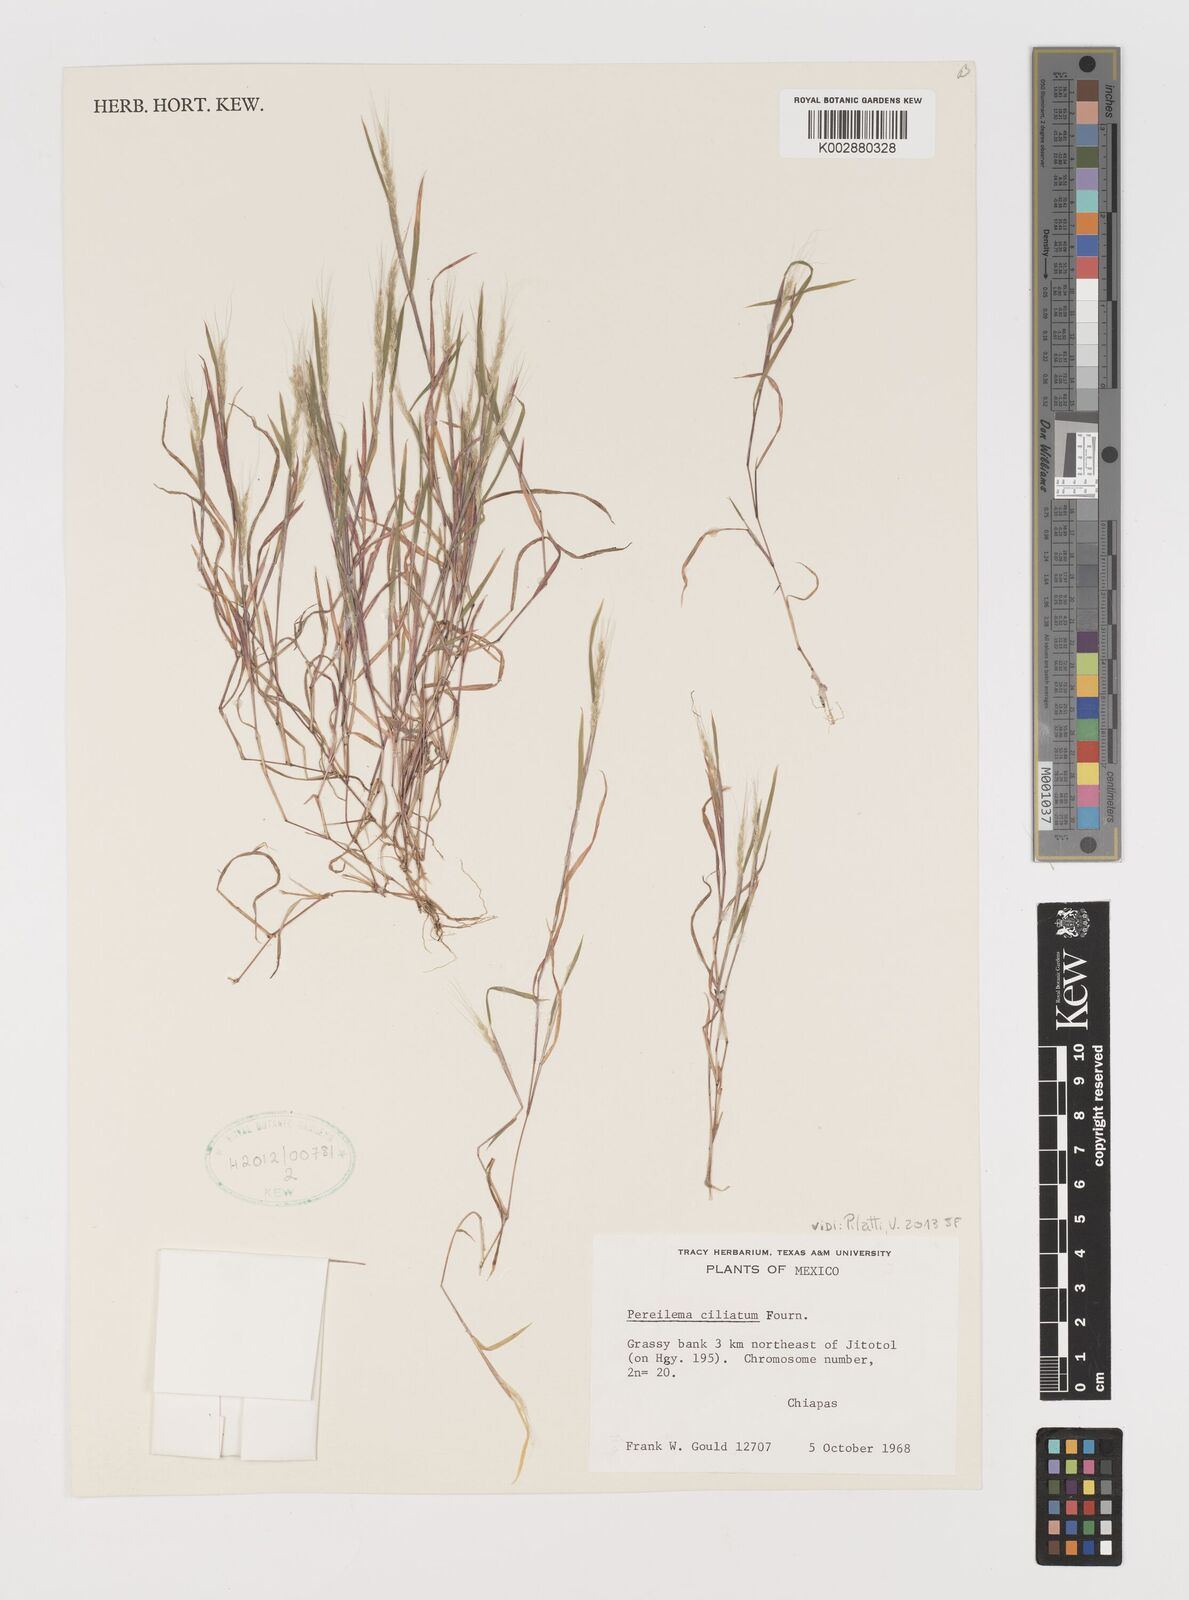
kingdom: Plantae
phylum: Tracheophyta
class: Liliopsida
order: Poales
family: Poaceae
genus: Muhlenbergia
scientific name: Muhlenbergia plumiseta
